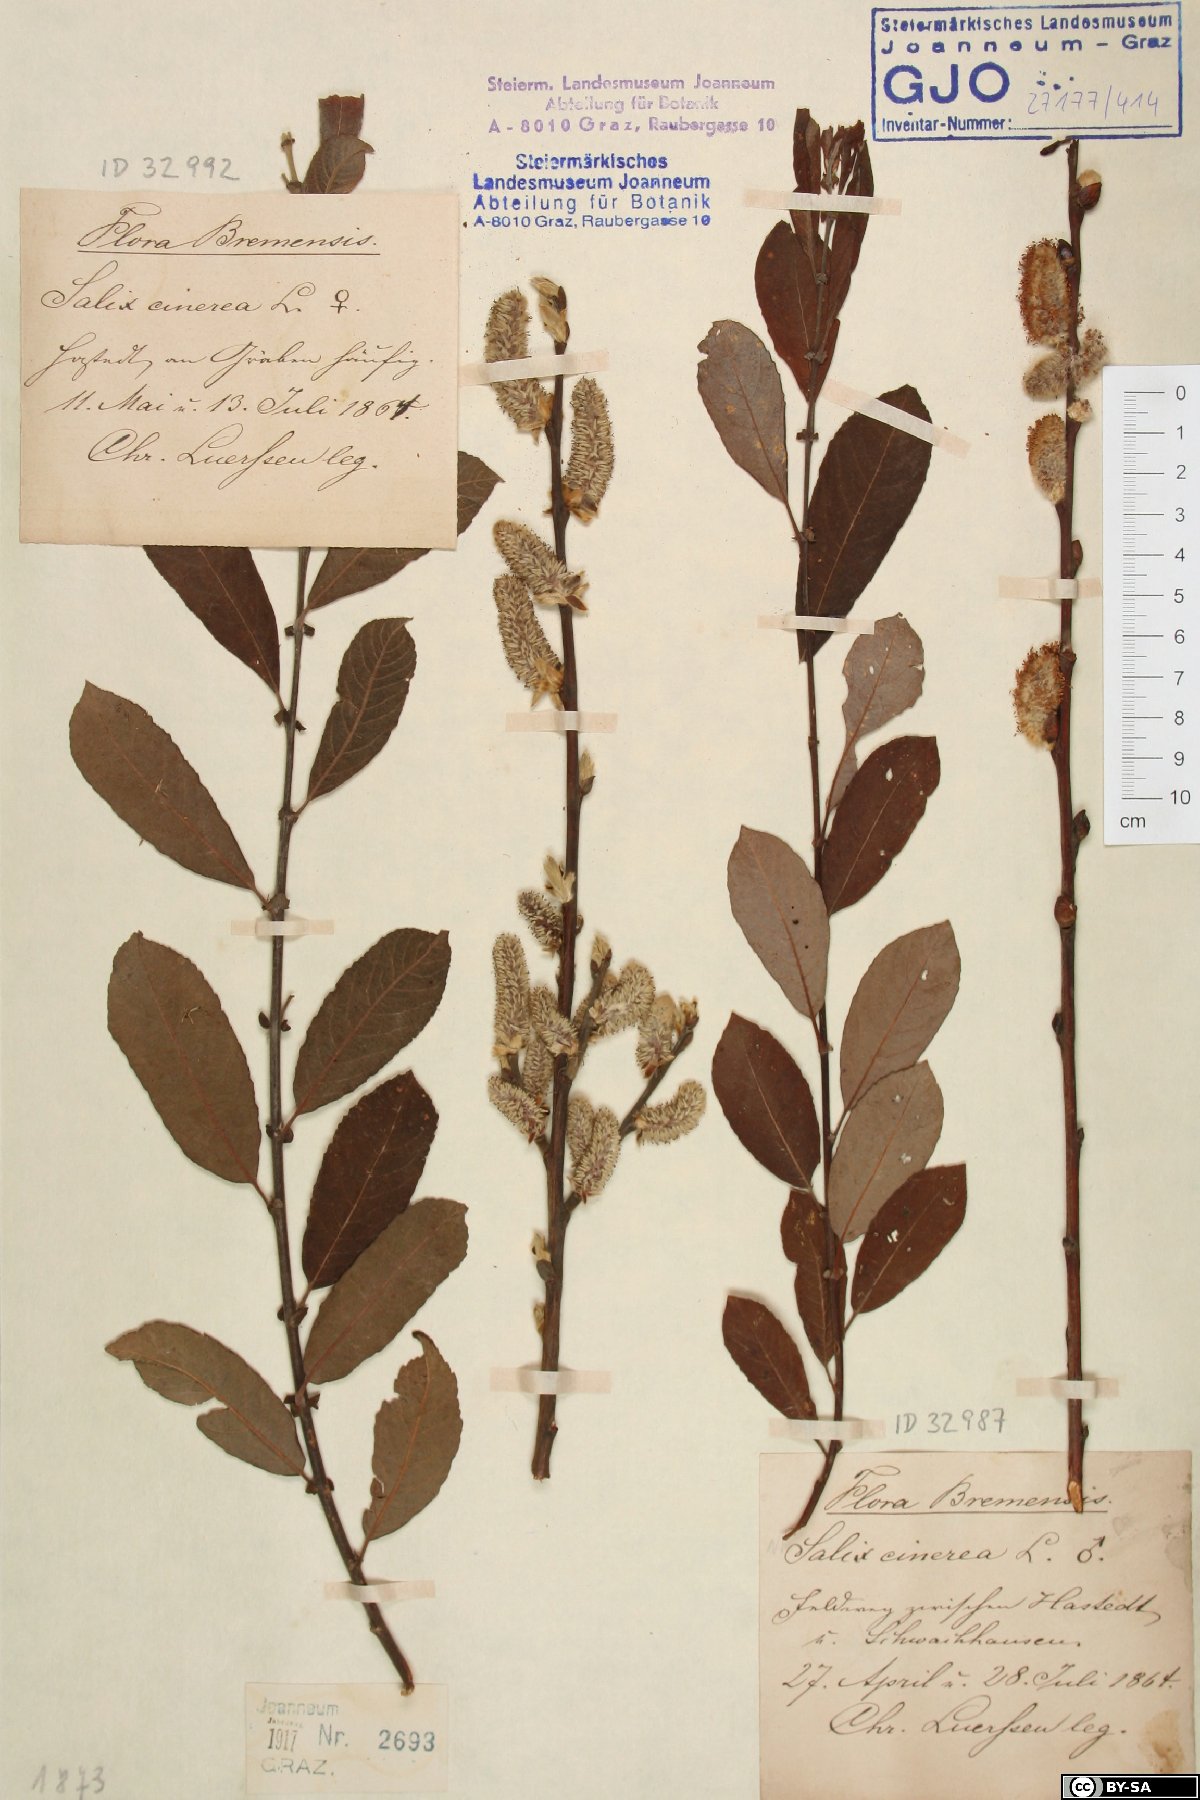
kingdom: Plantae
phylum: Tracheophyta
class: Magnoliopsida
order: Malpighiales
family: Salicaceae
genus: Salix
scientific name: Salix cinerea
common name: Common sallow
